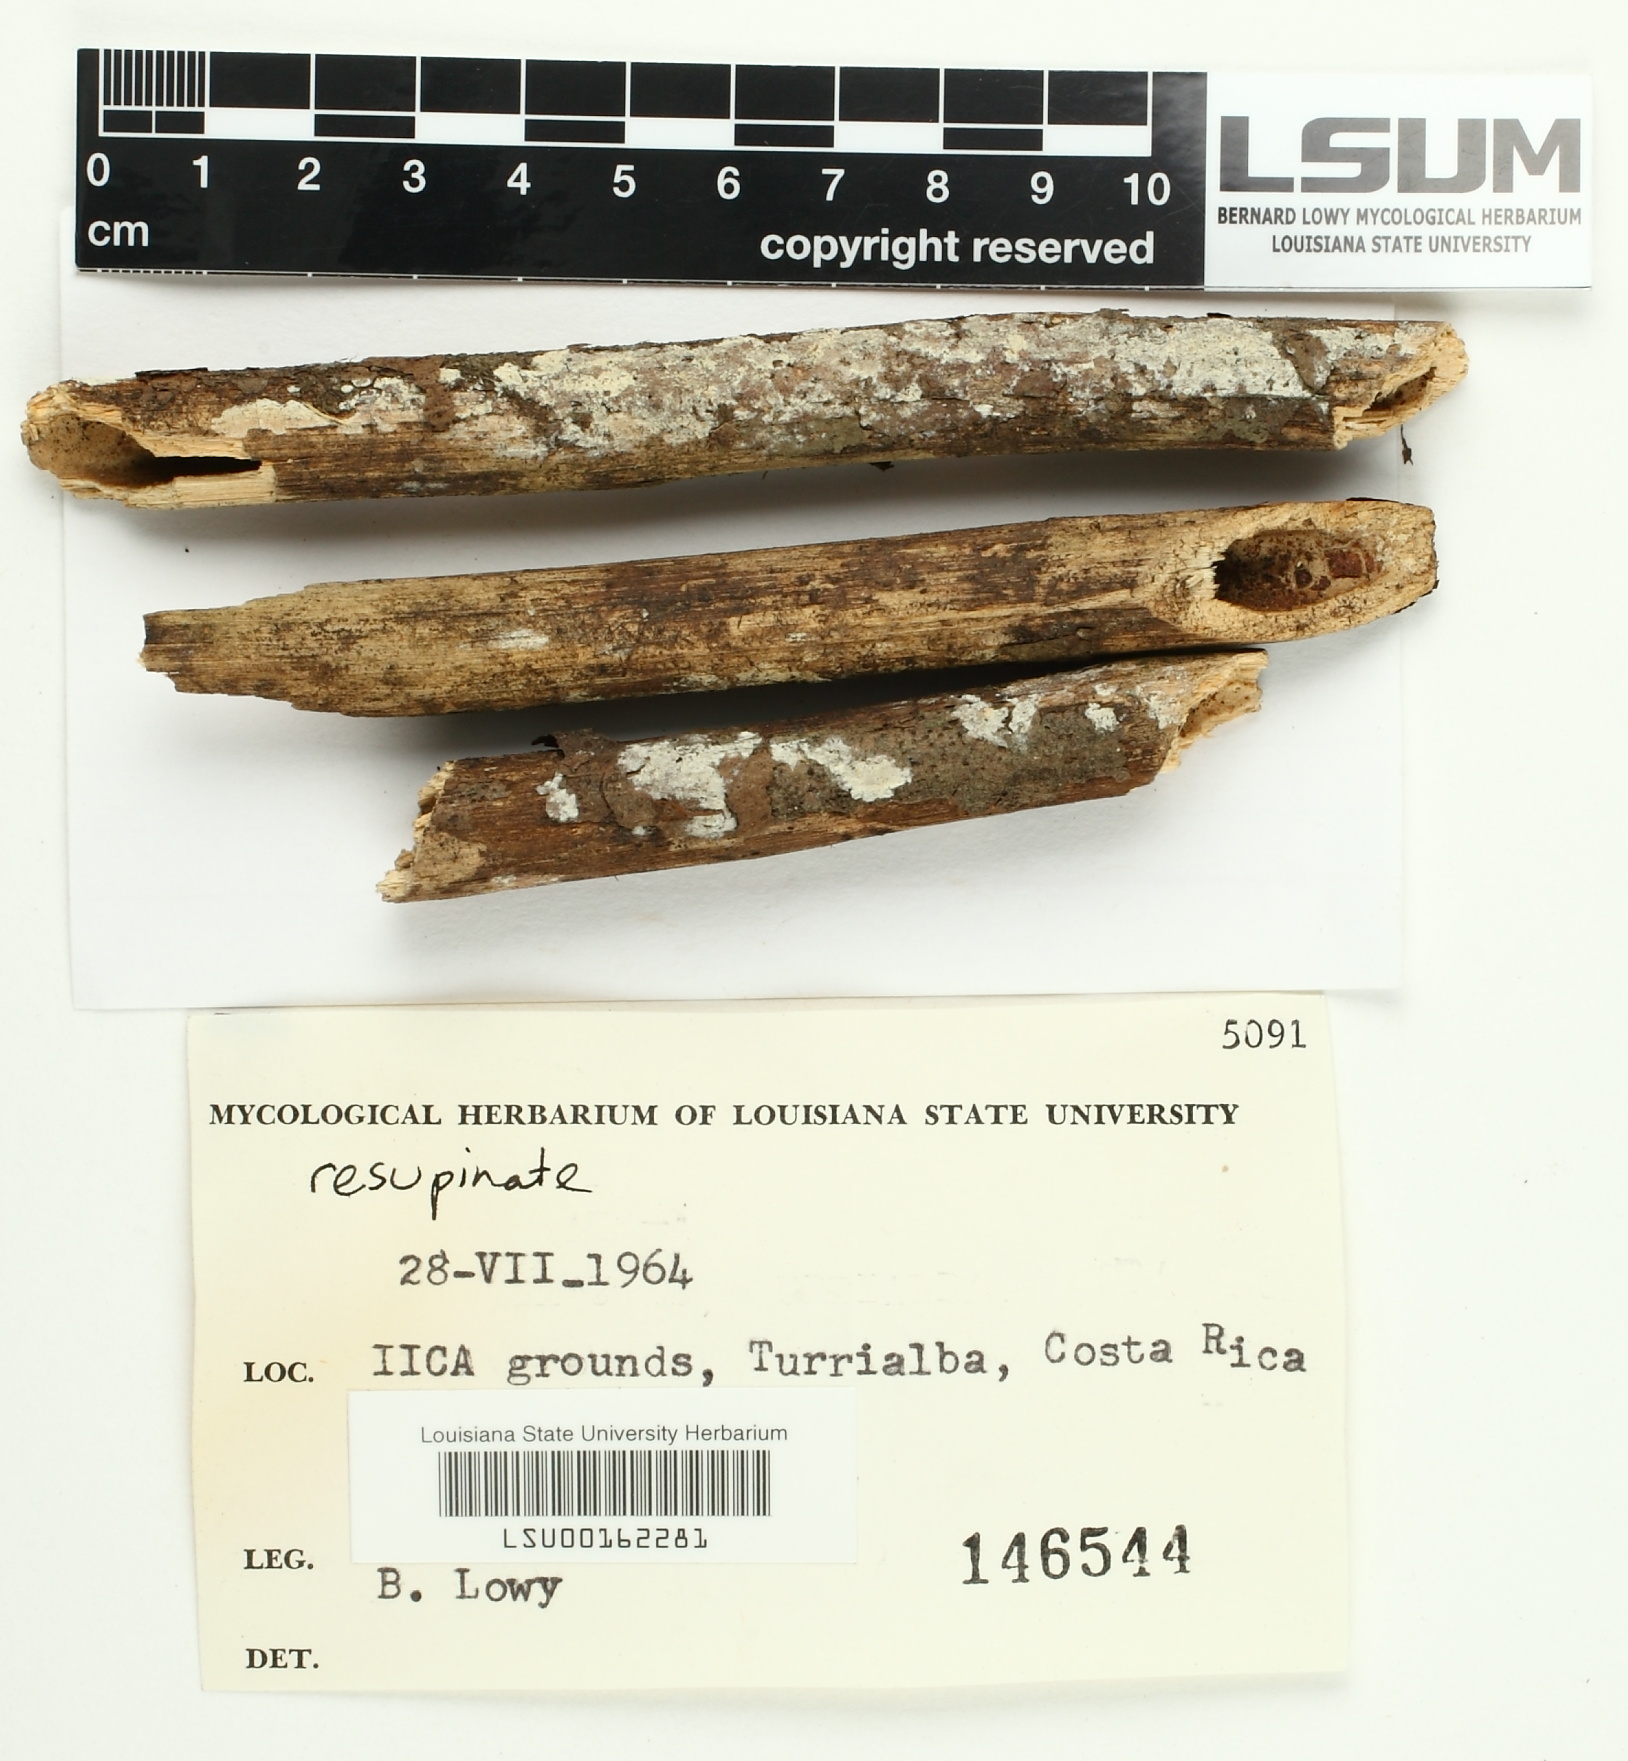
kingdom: Fungi
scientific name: Fungi
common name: Fungi
